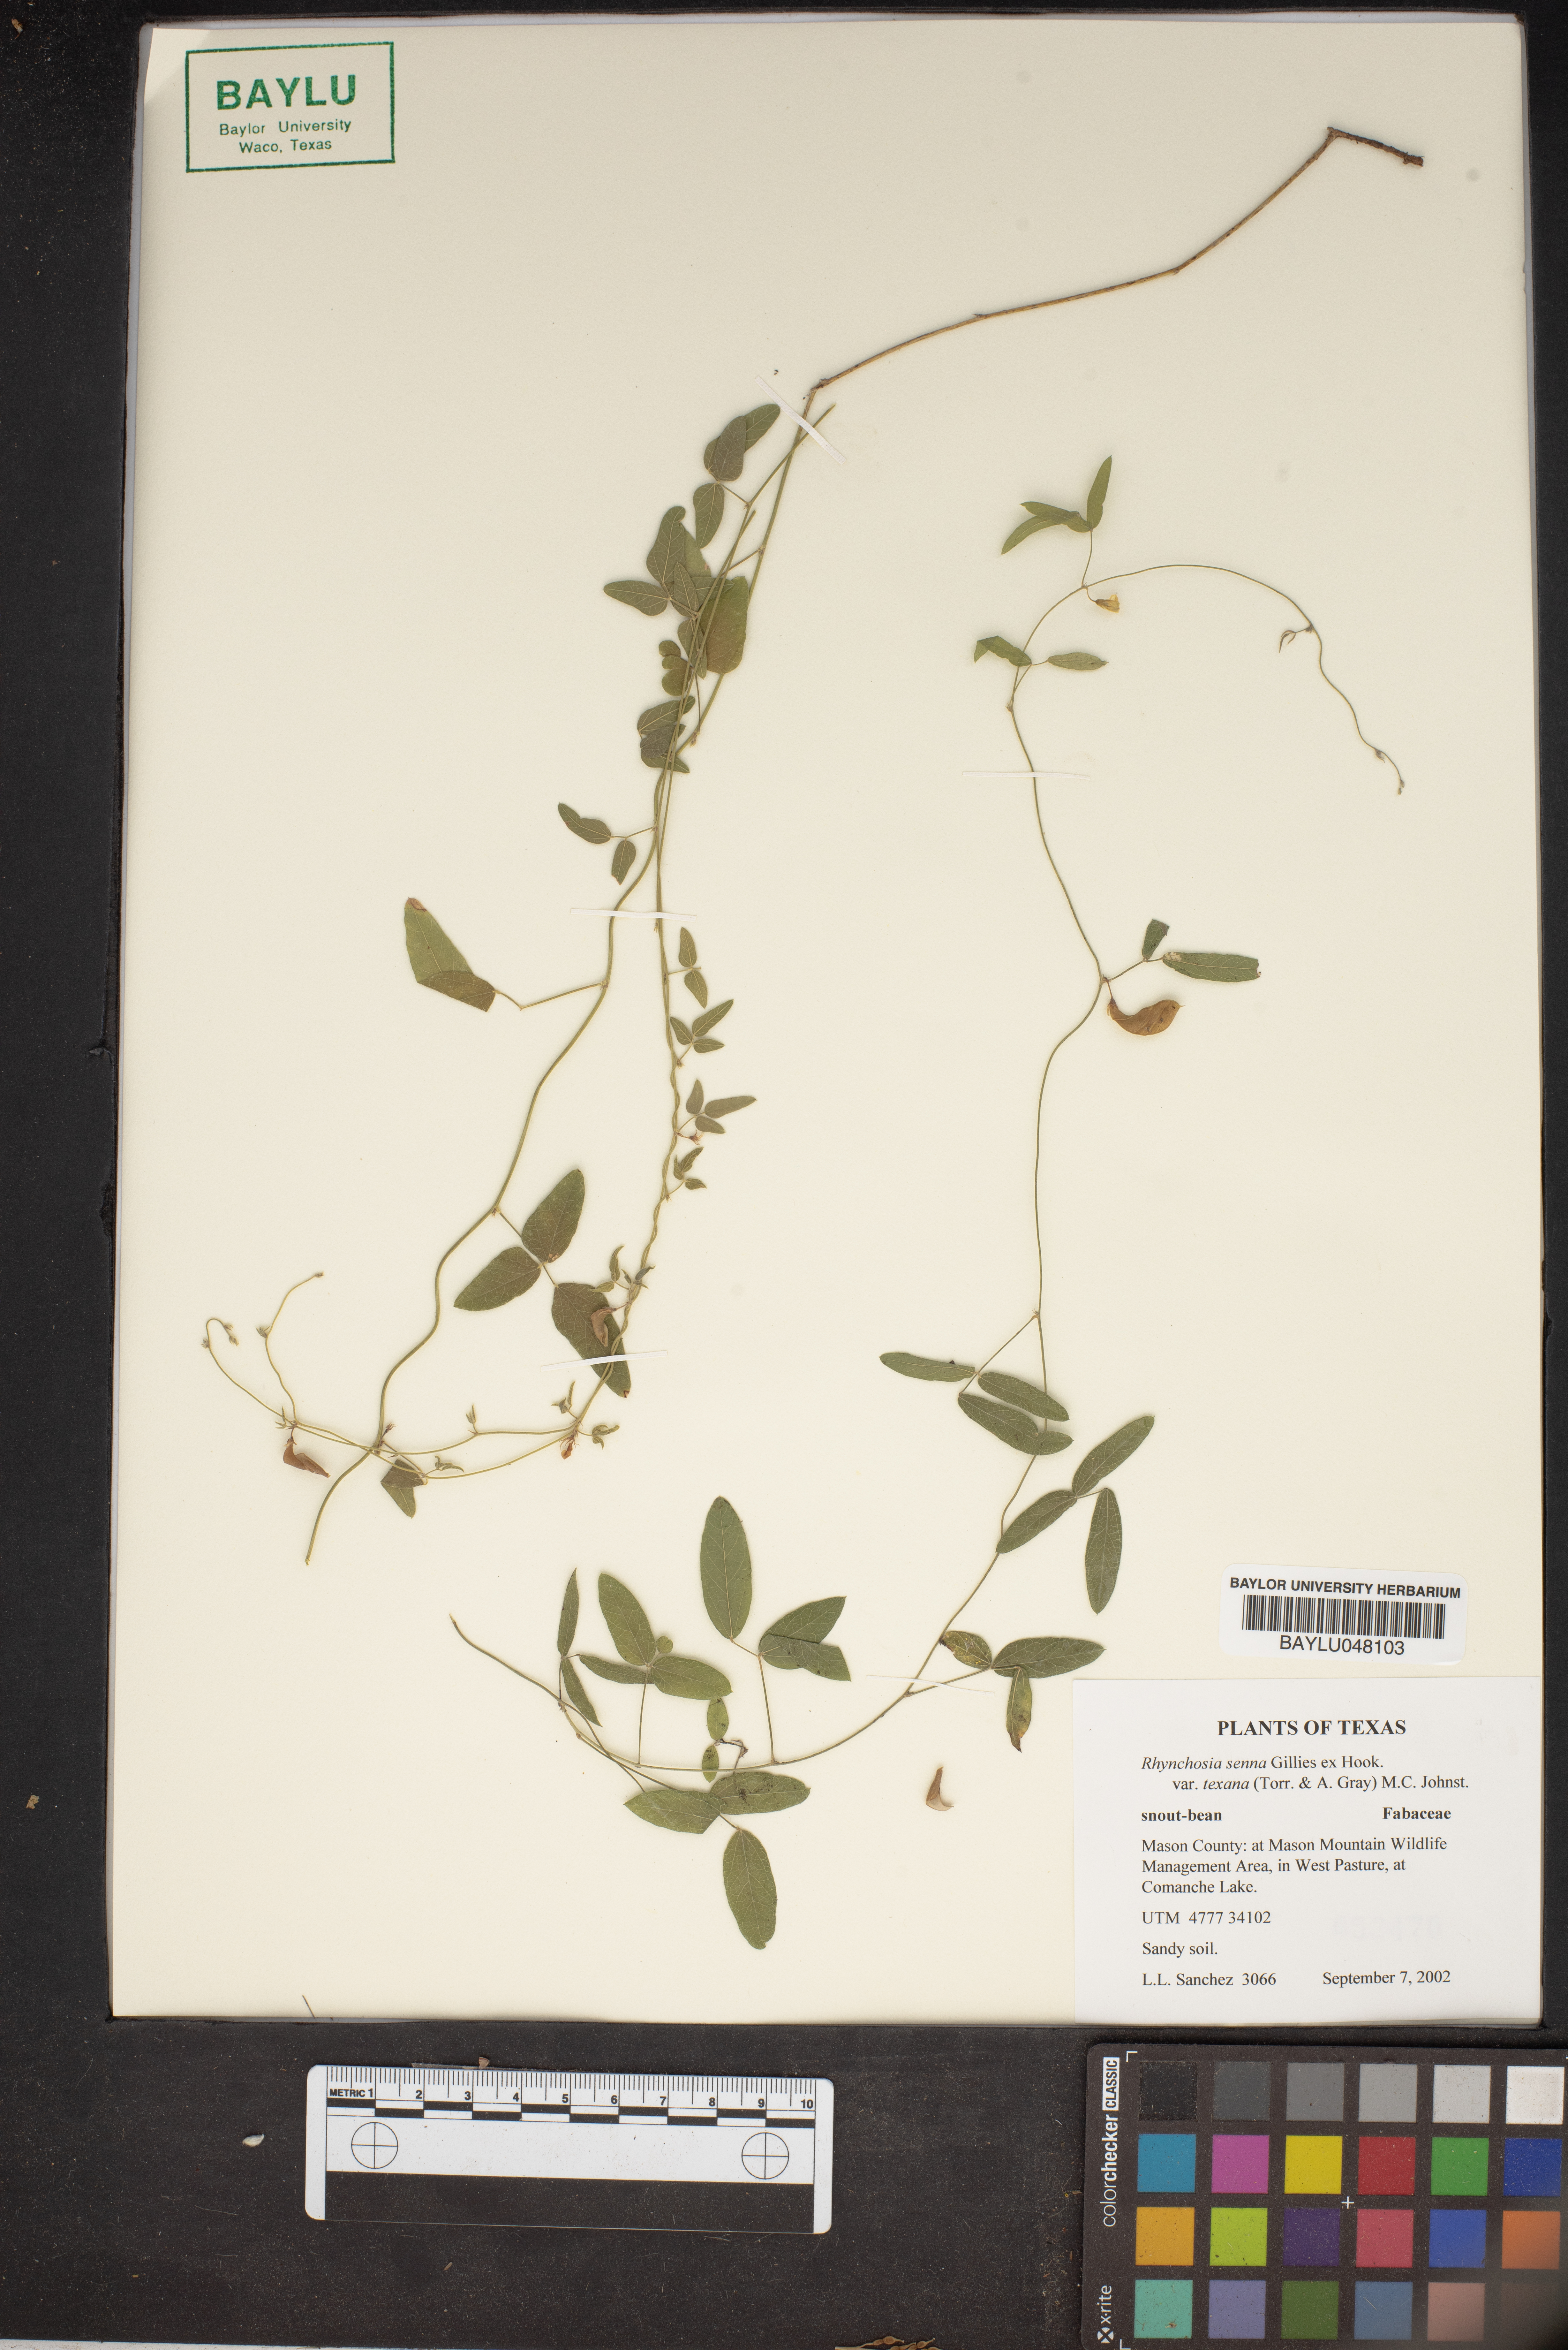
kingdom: Plantae
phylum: Tracheophyta
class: Magnoliopsida
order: Fabales
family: Fabaceae
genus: Rhynchosia
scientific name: Rhynchosia senna
